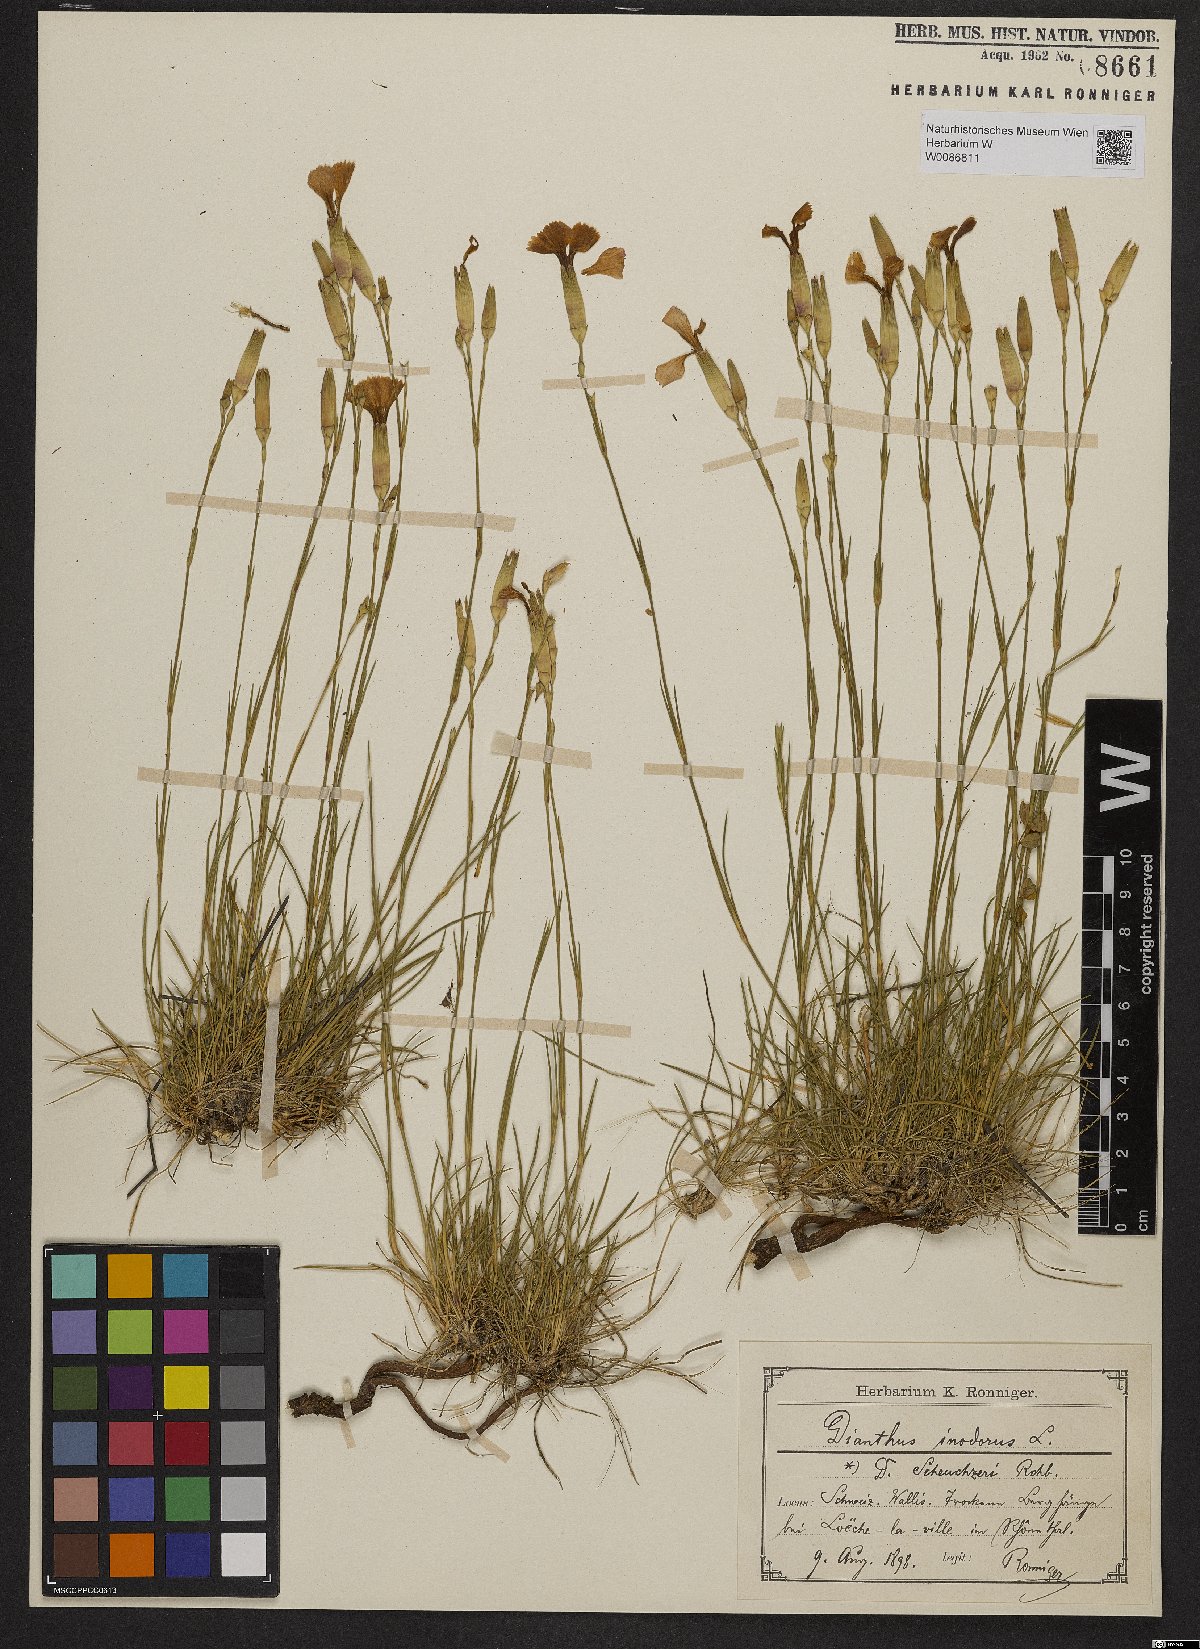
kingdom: Plantae
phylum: Tracheophyta
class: Magnoliopsida
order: Caryophyllales
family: Caryophyllaceae
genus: Dianthus
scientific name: Dianthus sylvestris
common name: Wood pink
